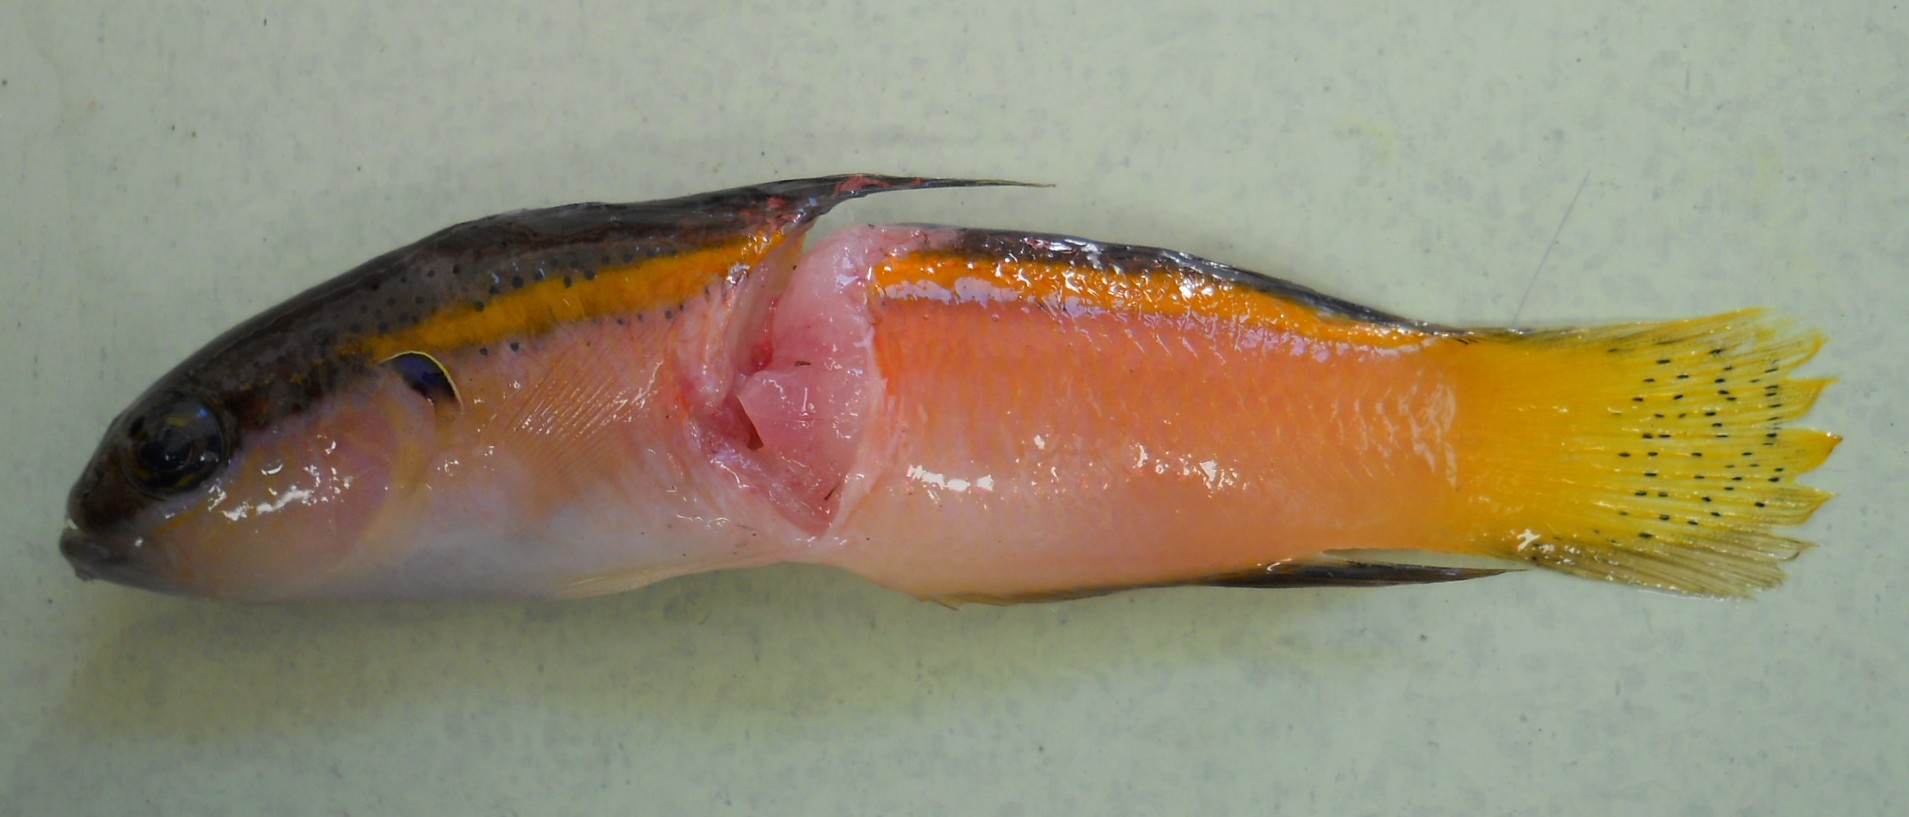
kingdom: Animalia
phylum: Chordata
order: Perciformes
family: Pseudochromidae
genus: Pseudochromis
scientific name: Pseudochromis pesi
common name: Pale dottyback
